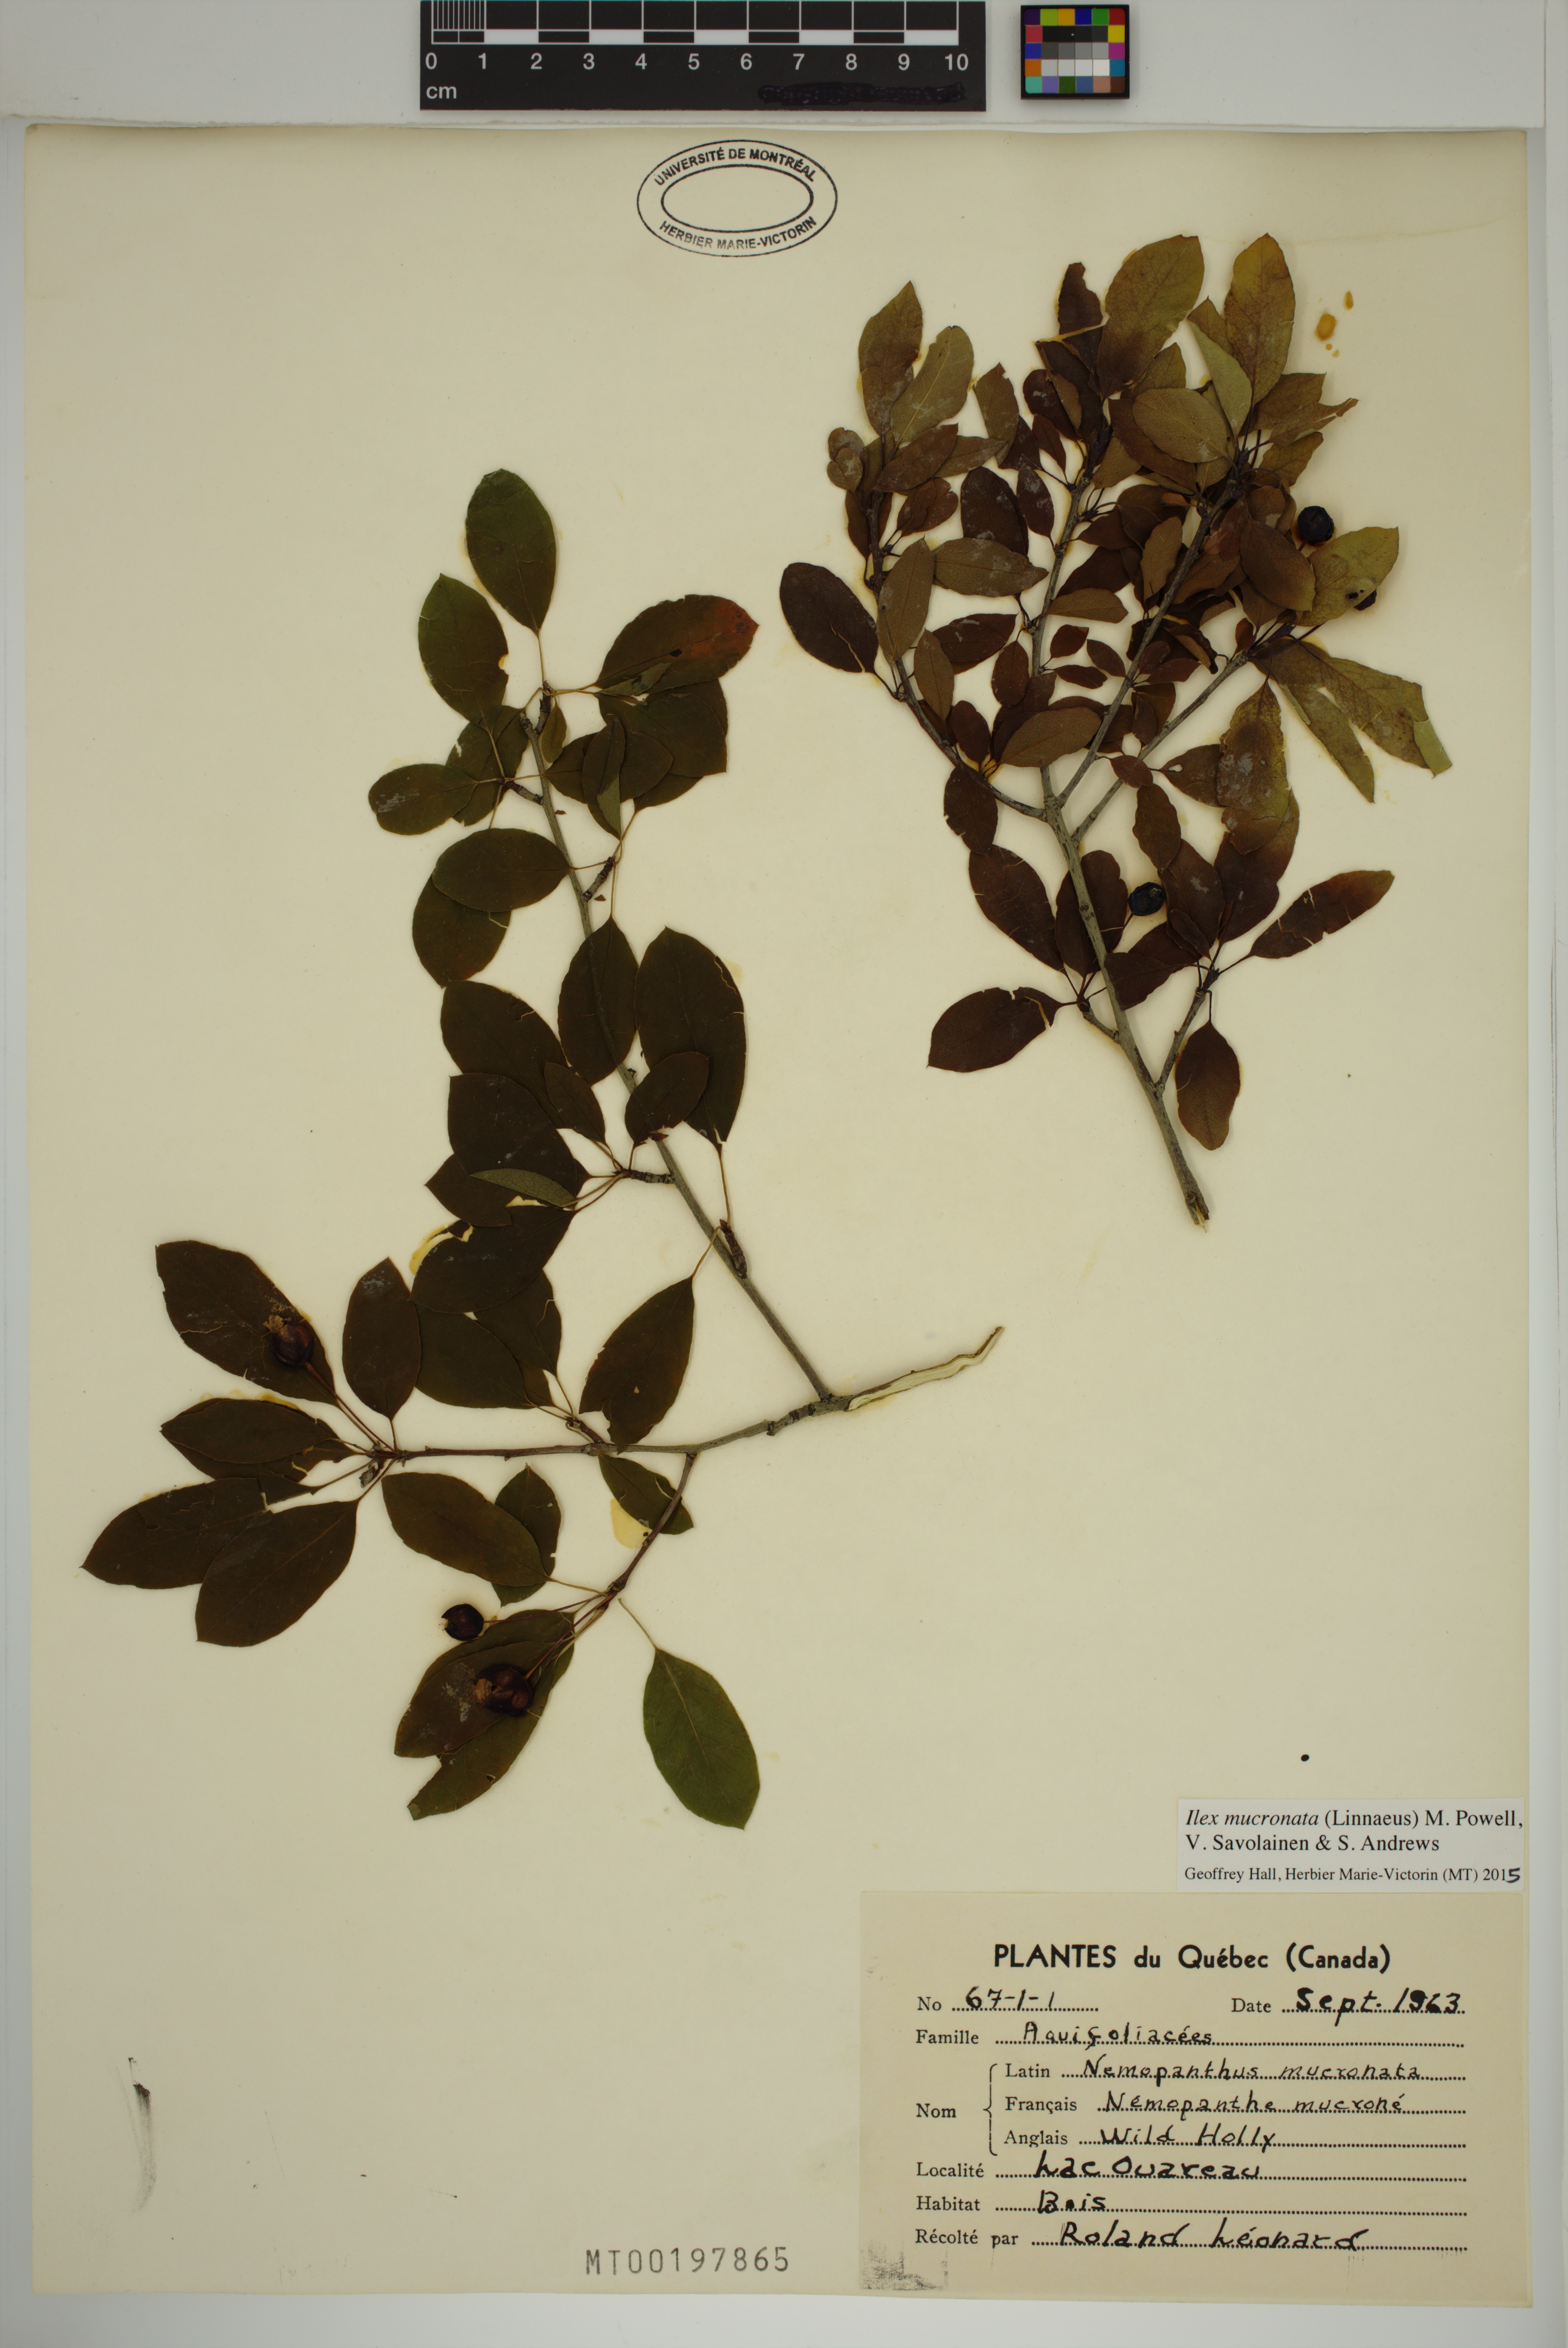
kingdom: Plantae
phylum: Tracheophyta
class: Magnoliopsida
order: Aquifoliales
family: Aquifoliaceae
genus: Ilex
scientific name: Ilex mucronata
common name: Catberry
